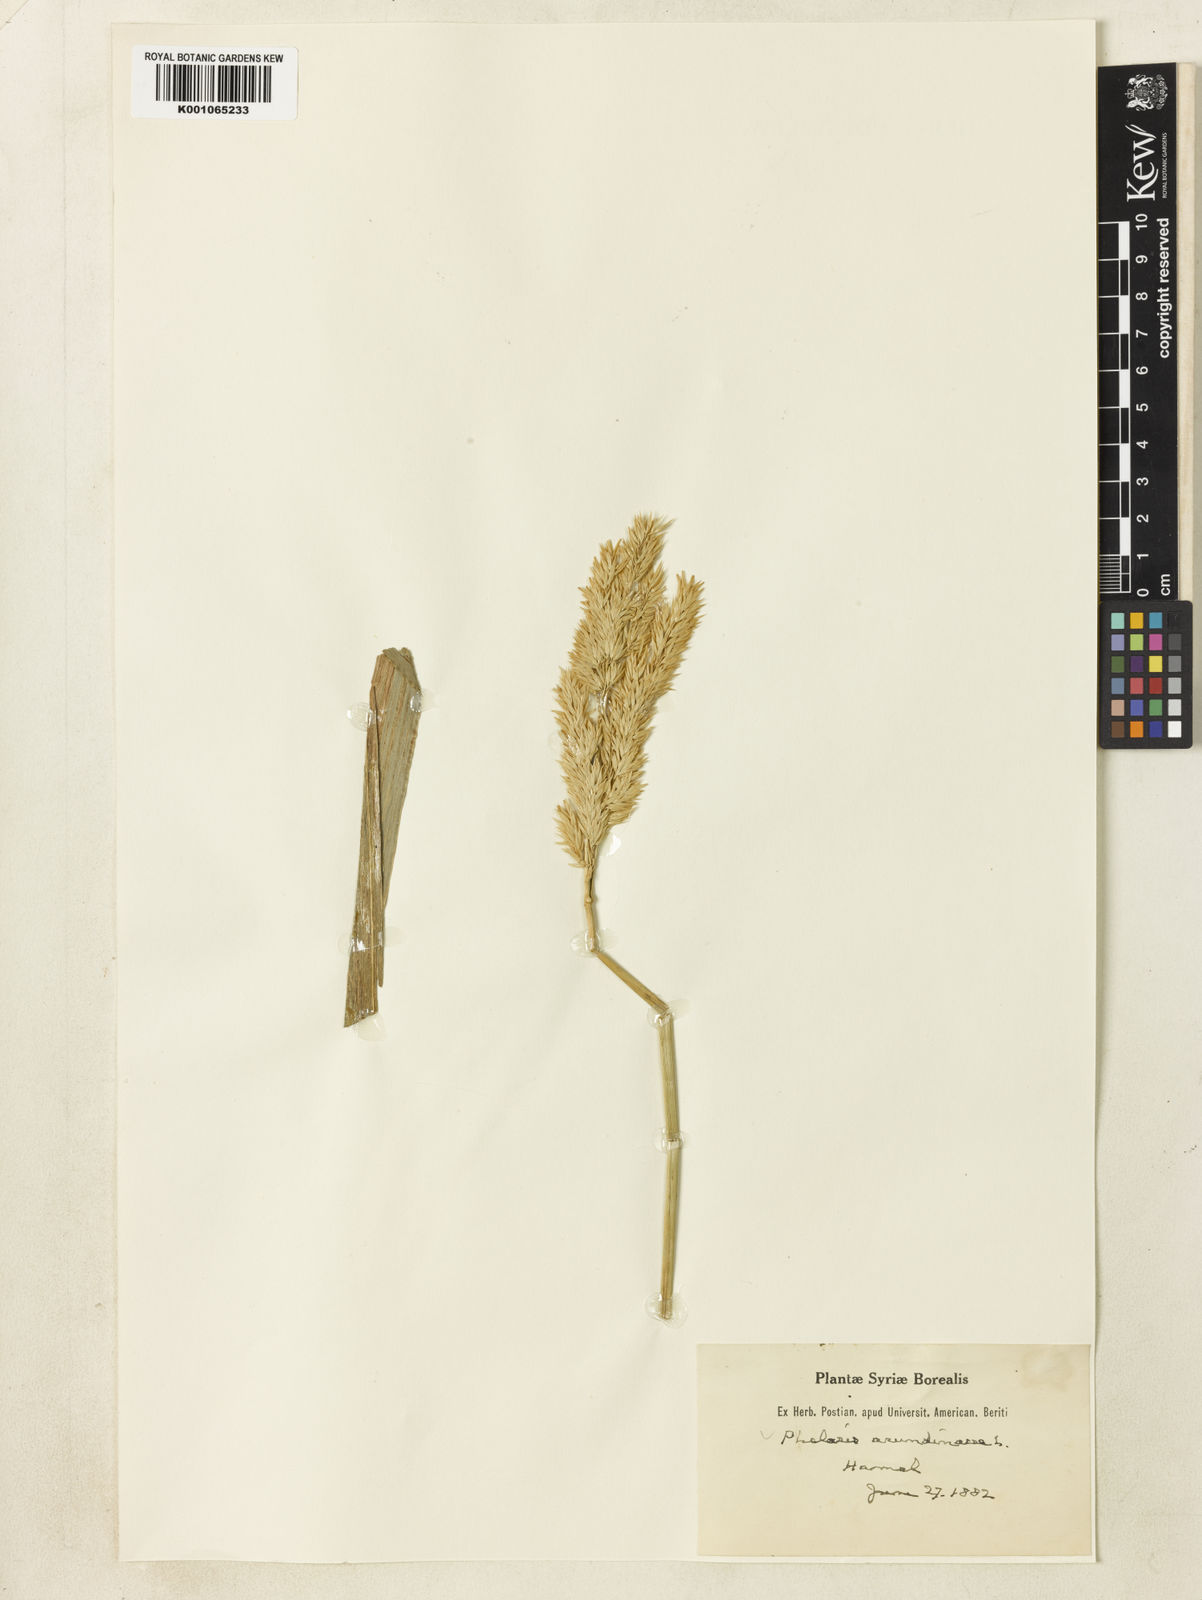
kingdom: Plantae
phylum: Tracheophyta
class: Liliopsida
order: Poales
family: Poaceae
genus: Phalaris
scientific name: Phalaris arundinacea
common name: Reed canary-grass
